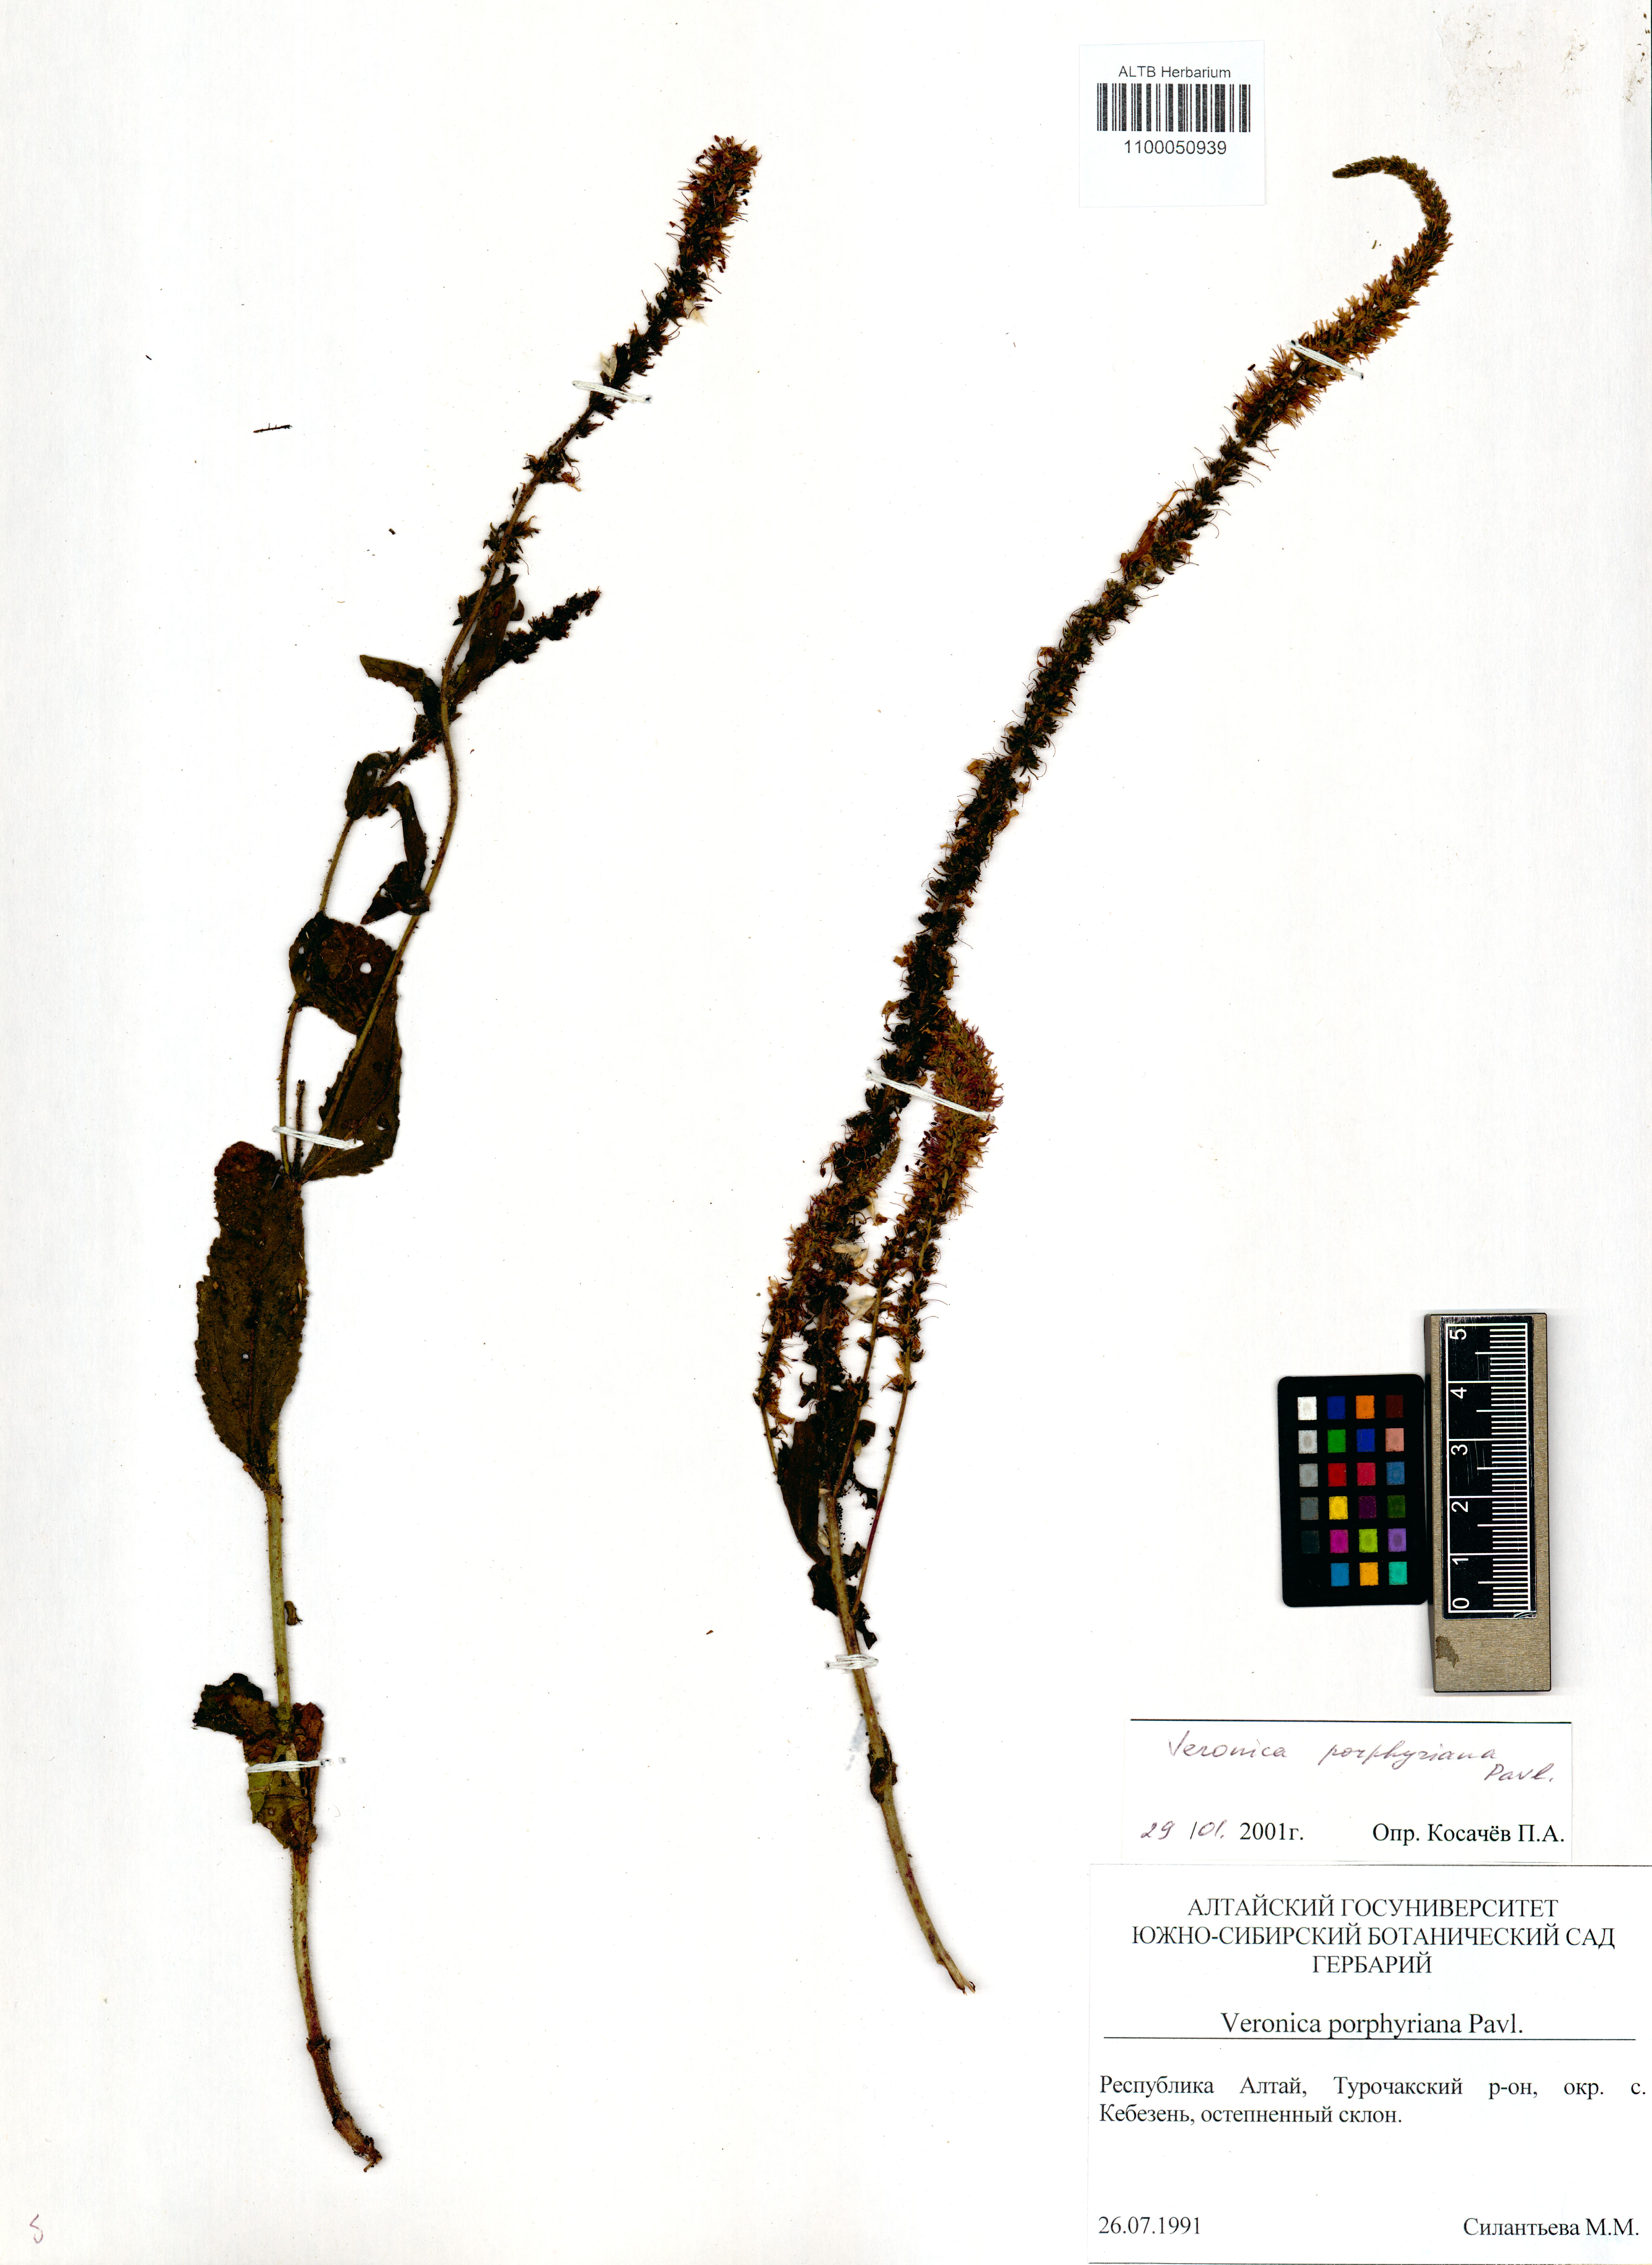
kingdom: Plantae
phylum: Tracheophyta
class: Magnoliopsida
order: Lamiales
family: Plantaginaceae
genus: Veronica
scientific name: Veronica porphyriana
